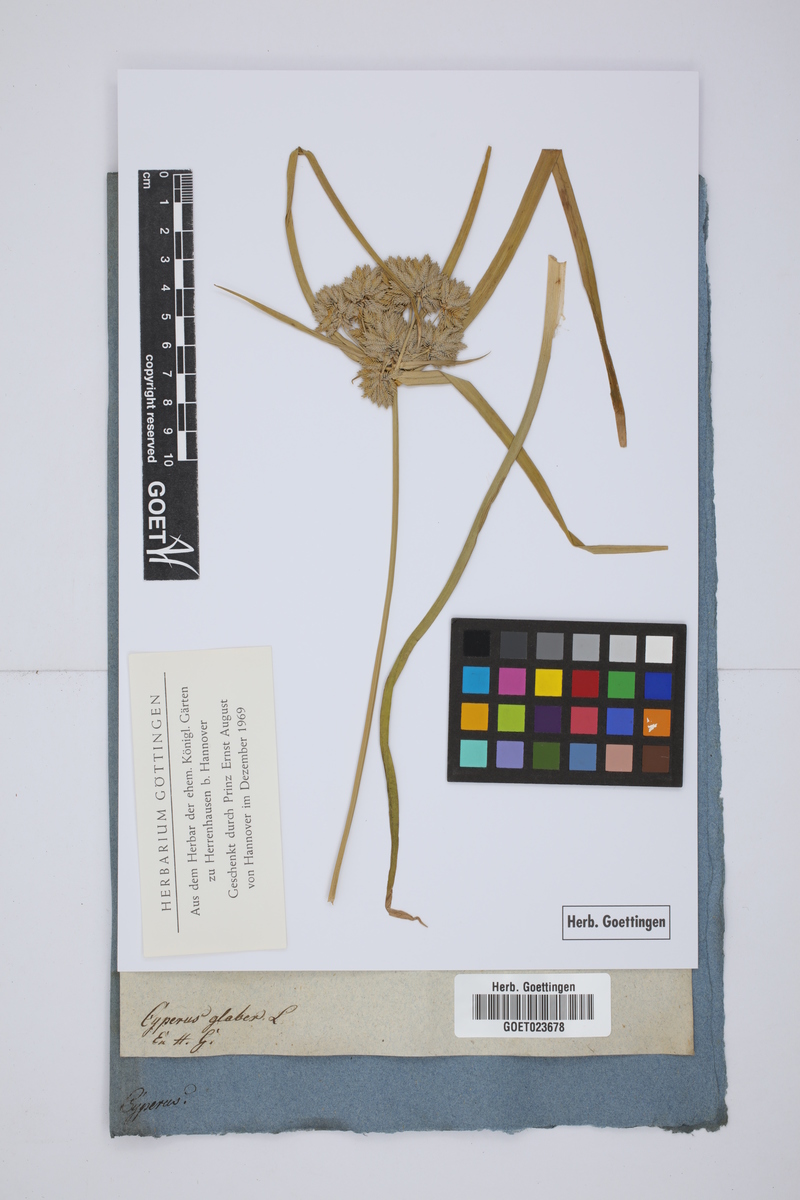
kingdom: Plantae
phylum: Tracheophyta
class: Liliopsida
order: Poales
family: Cyperaceae
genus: Cyperus
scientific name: Cyperus glaber
